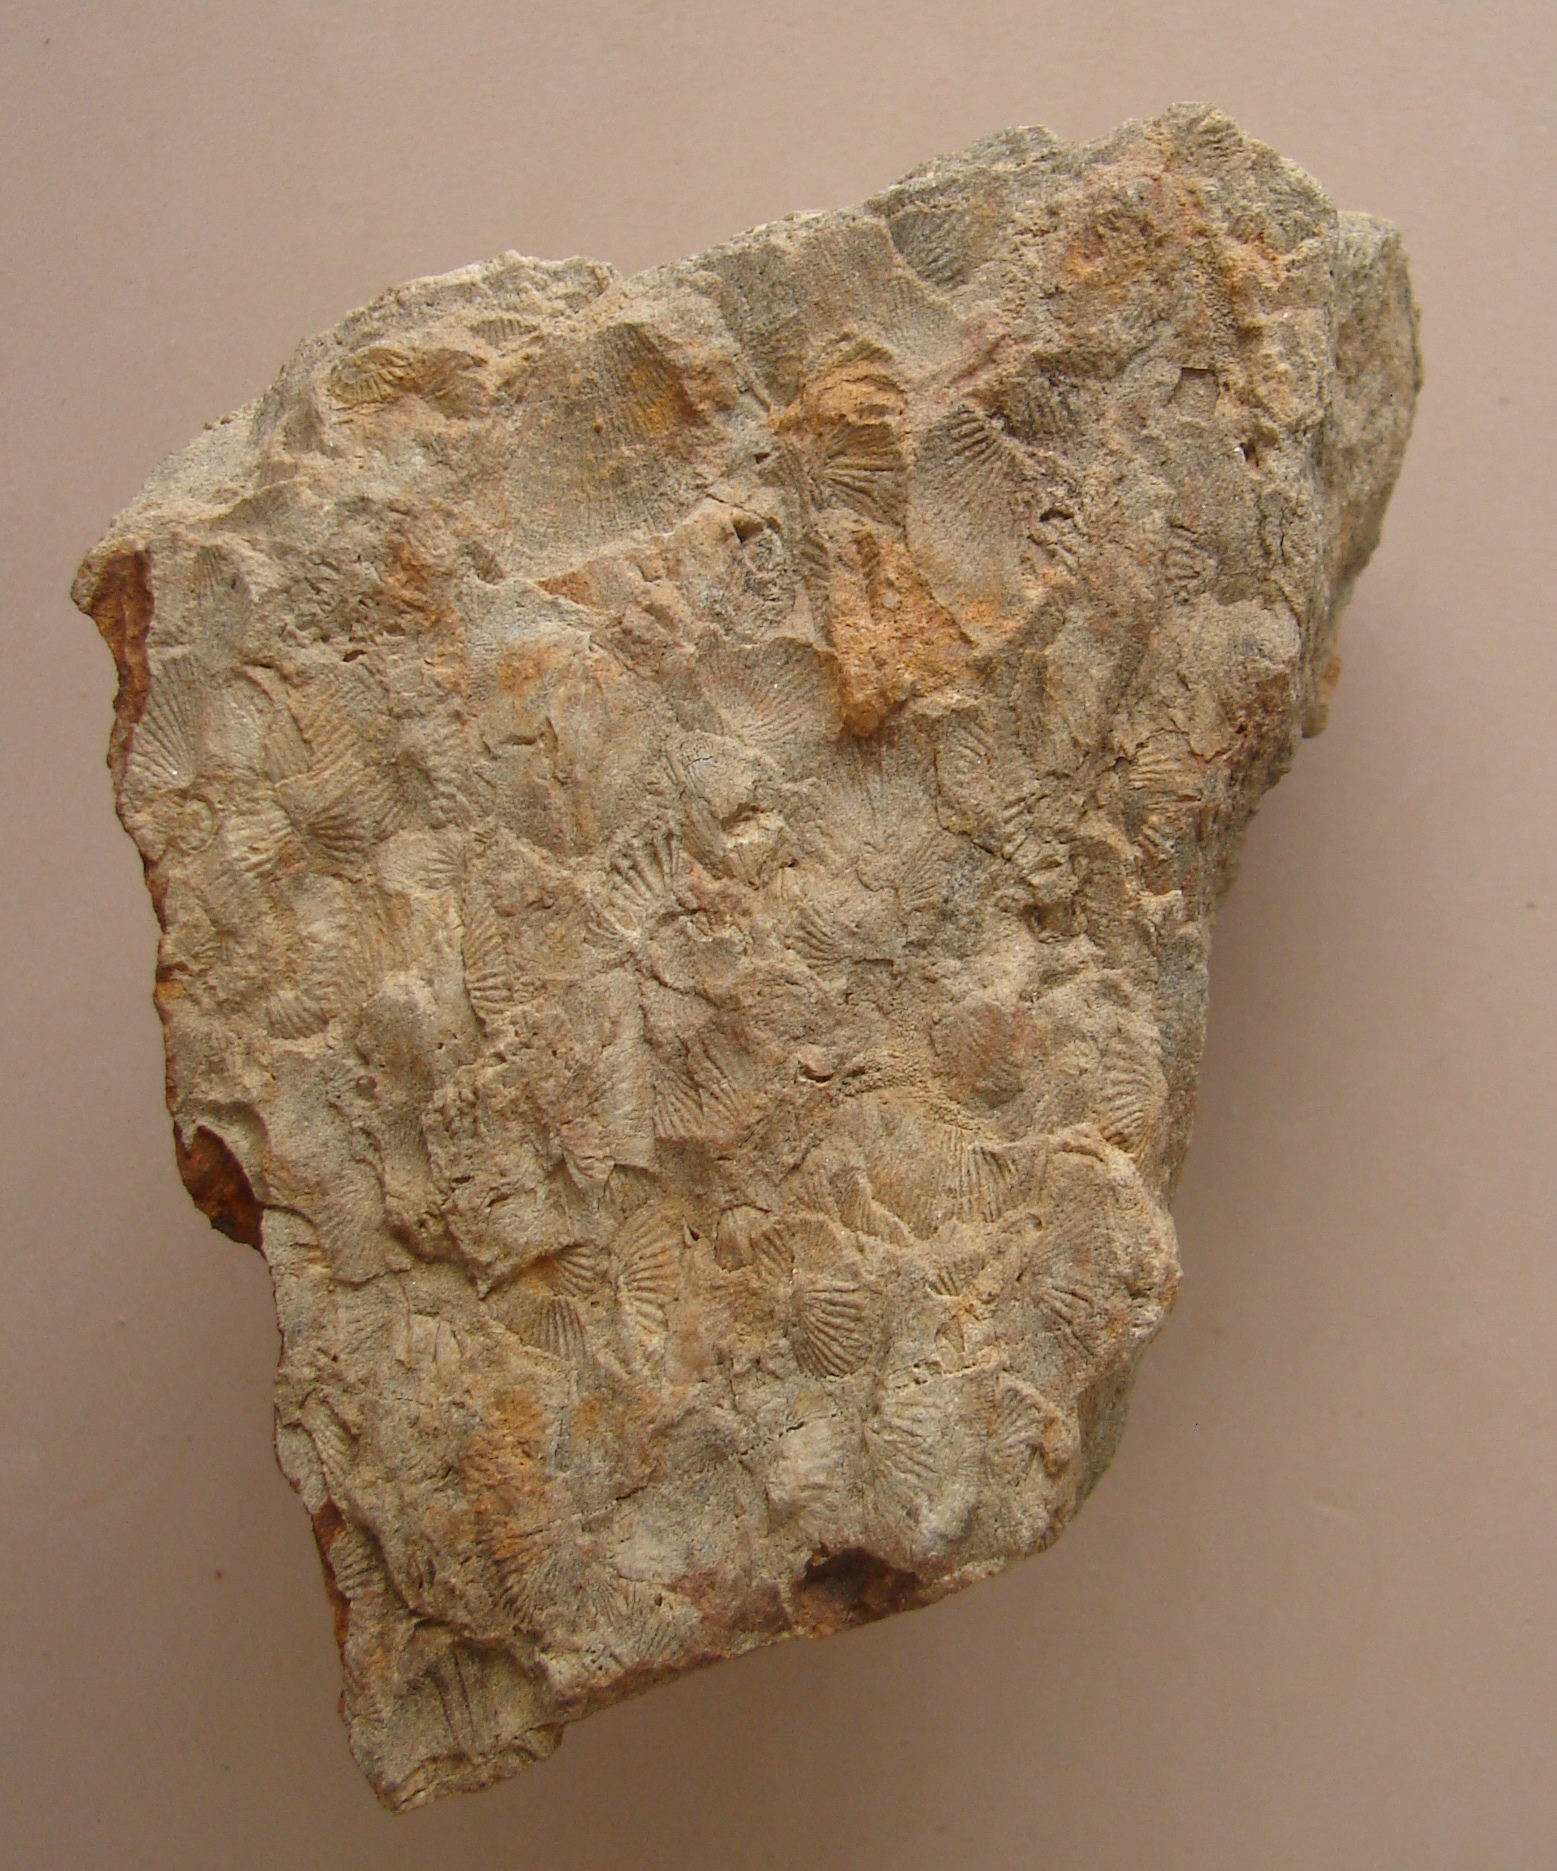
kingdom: Animalia
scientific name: Animalia
